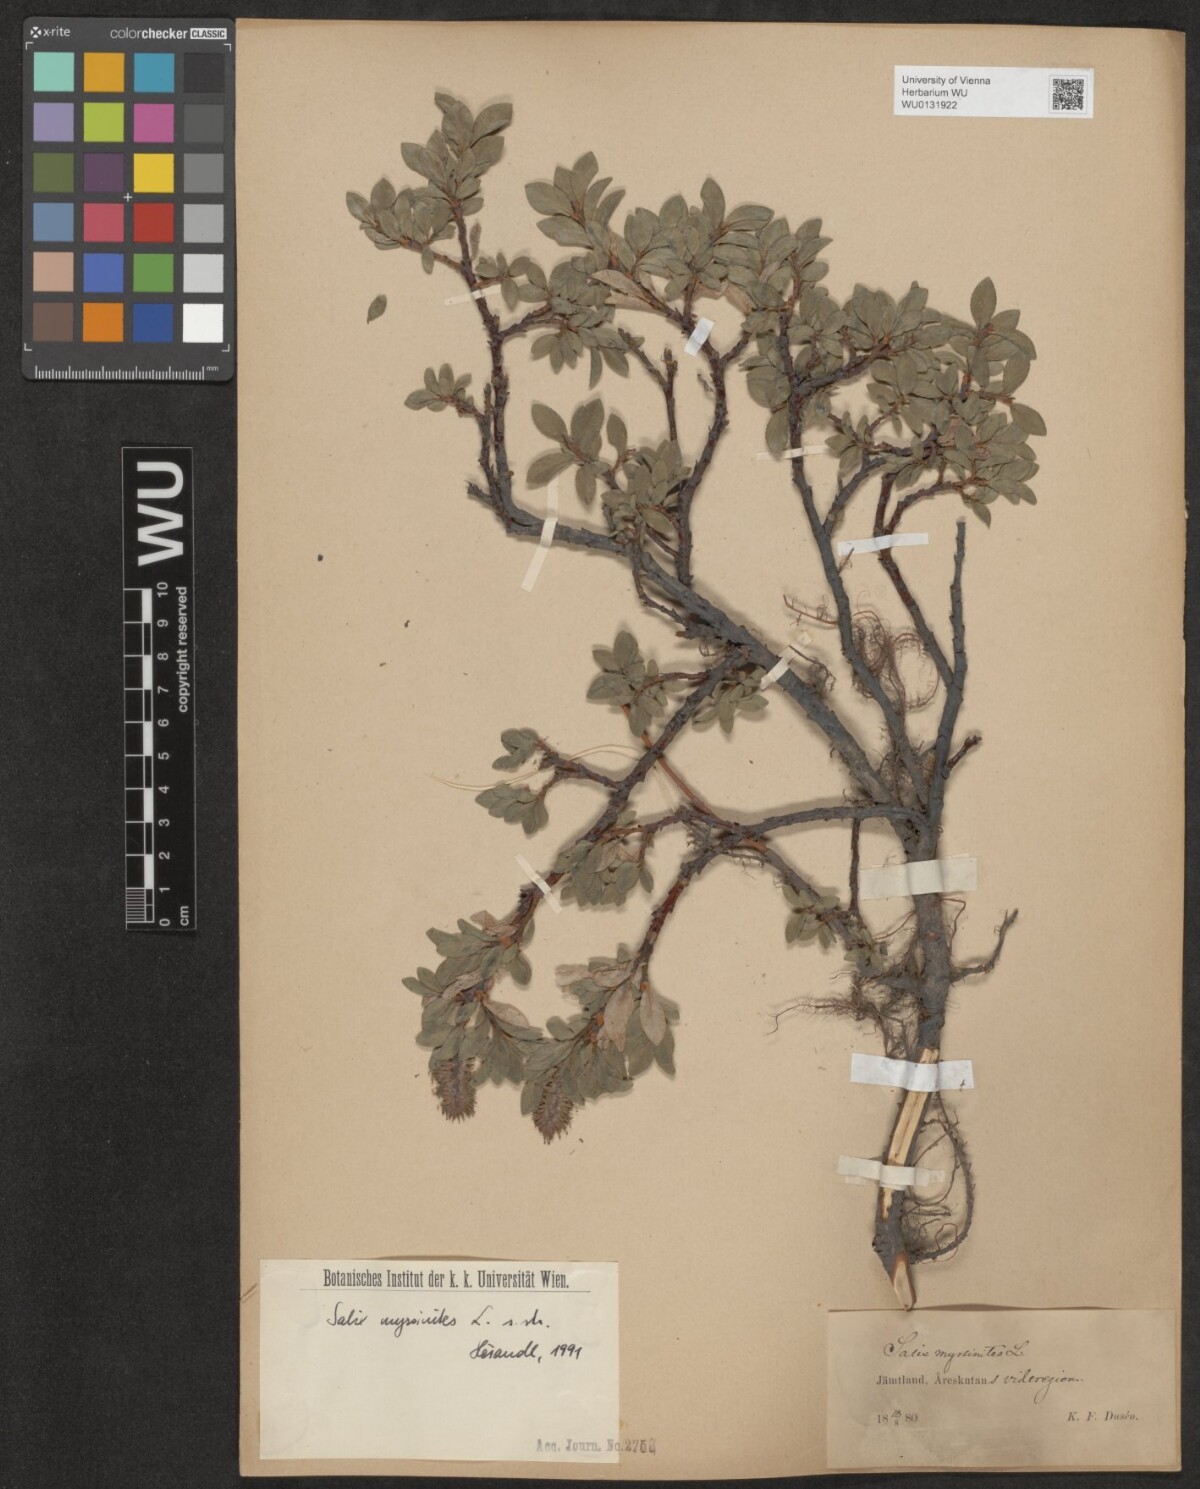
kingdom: Plantae
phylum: Tracheophyta
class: Magnoliopsida
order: Malpighiales
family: Salicaceae
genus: Salix
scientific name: Salix myrsinites
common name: Myrtle willow
